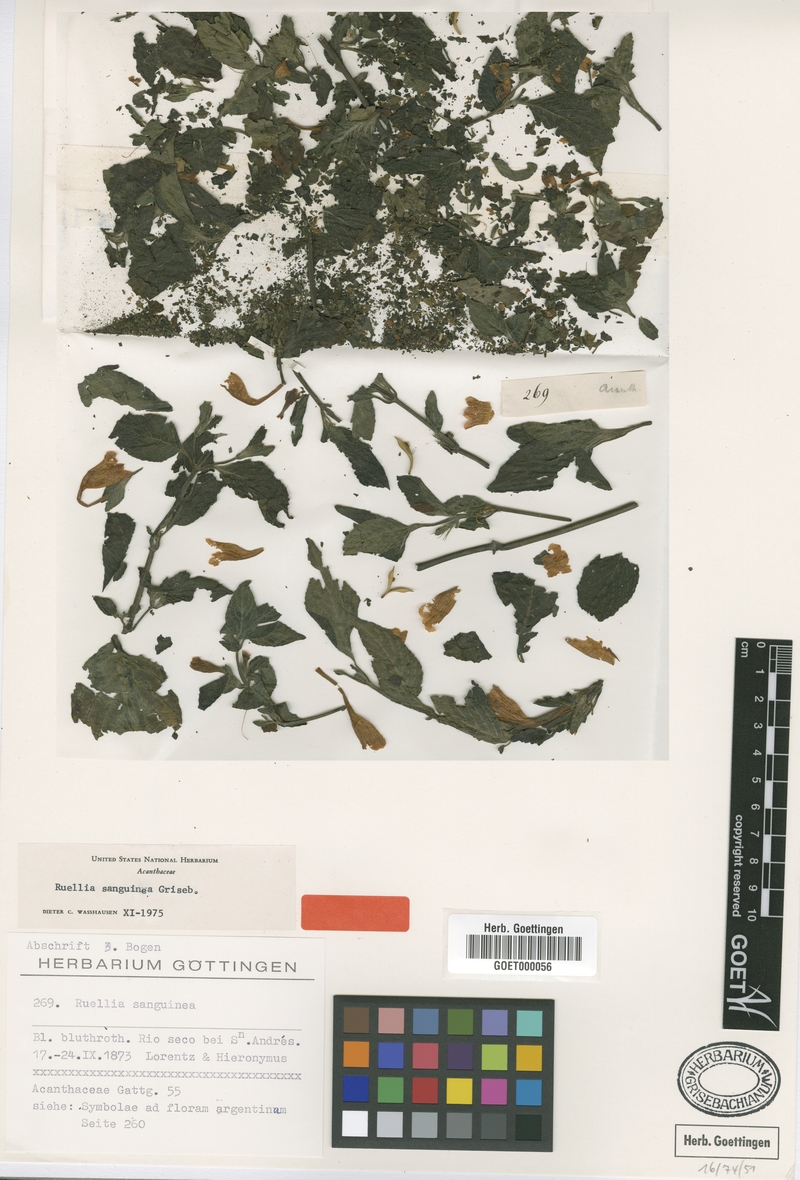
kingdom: Plantae
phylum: Tracheophyta
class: Magnoliopsida
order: Lamiales
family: Acanthaceae
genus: Ruellia
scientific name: Ruellia sanguinea
